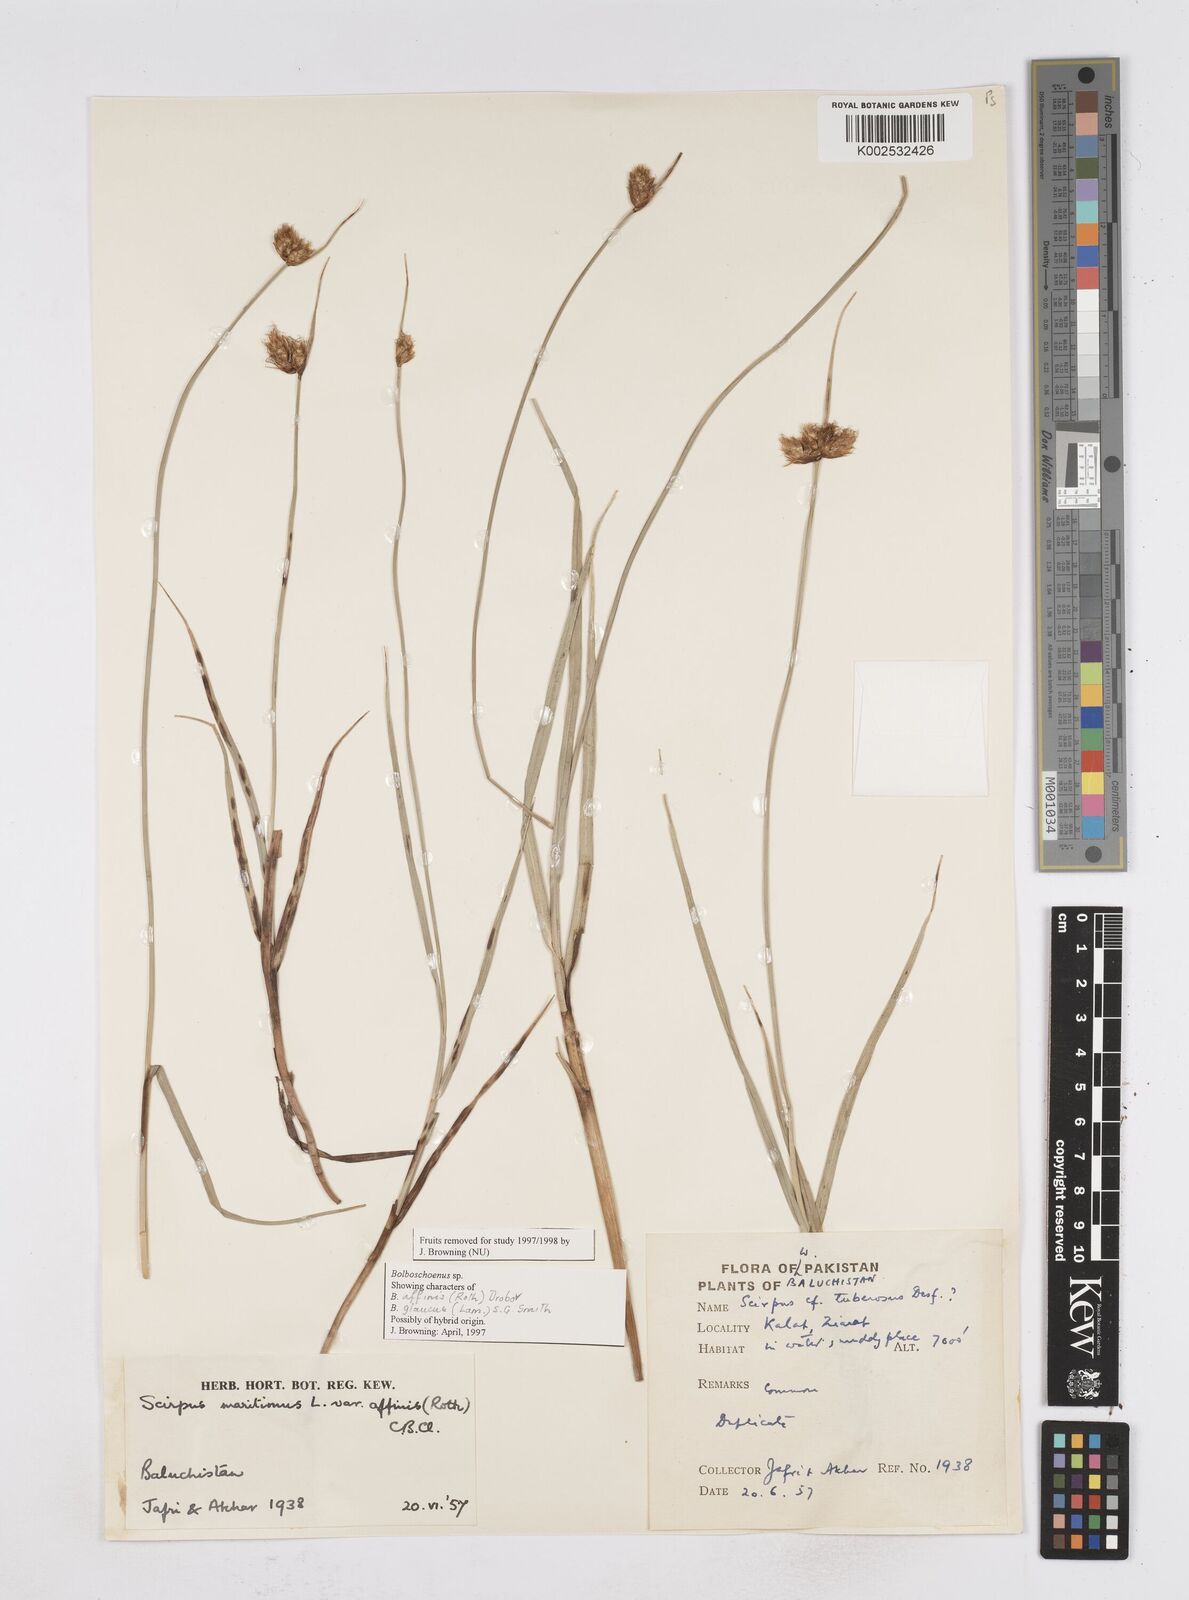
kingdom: Plantae
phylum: Tracheophyta
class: Liliopsida
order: Poales
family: Cyperaceae
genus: Bolboschoenus
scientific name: Bolboschoenus maritimus
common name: Sea club-rush
